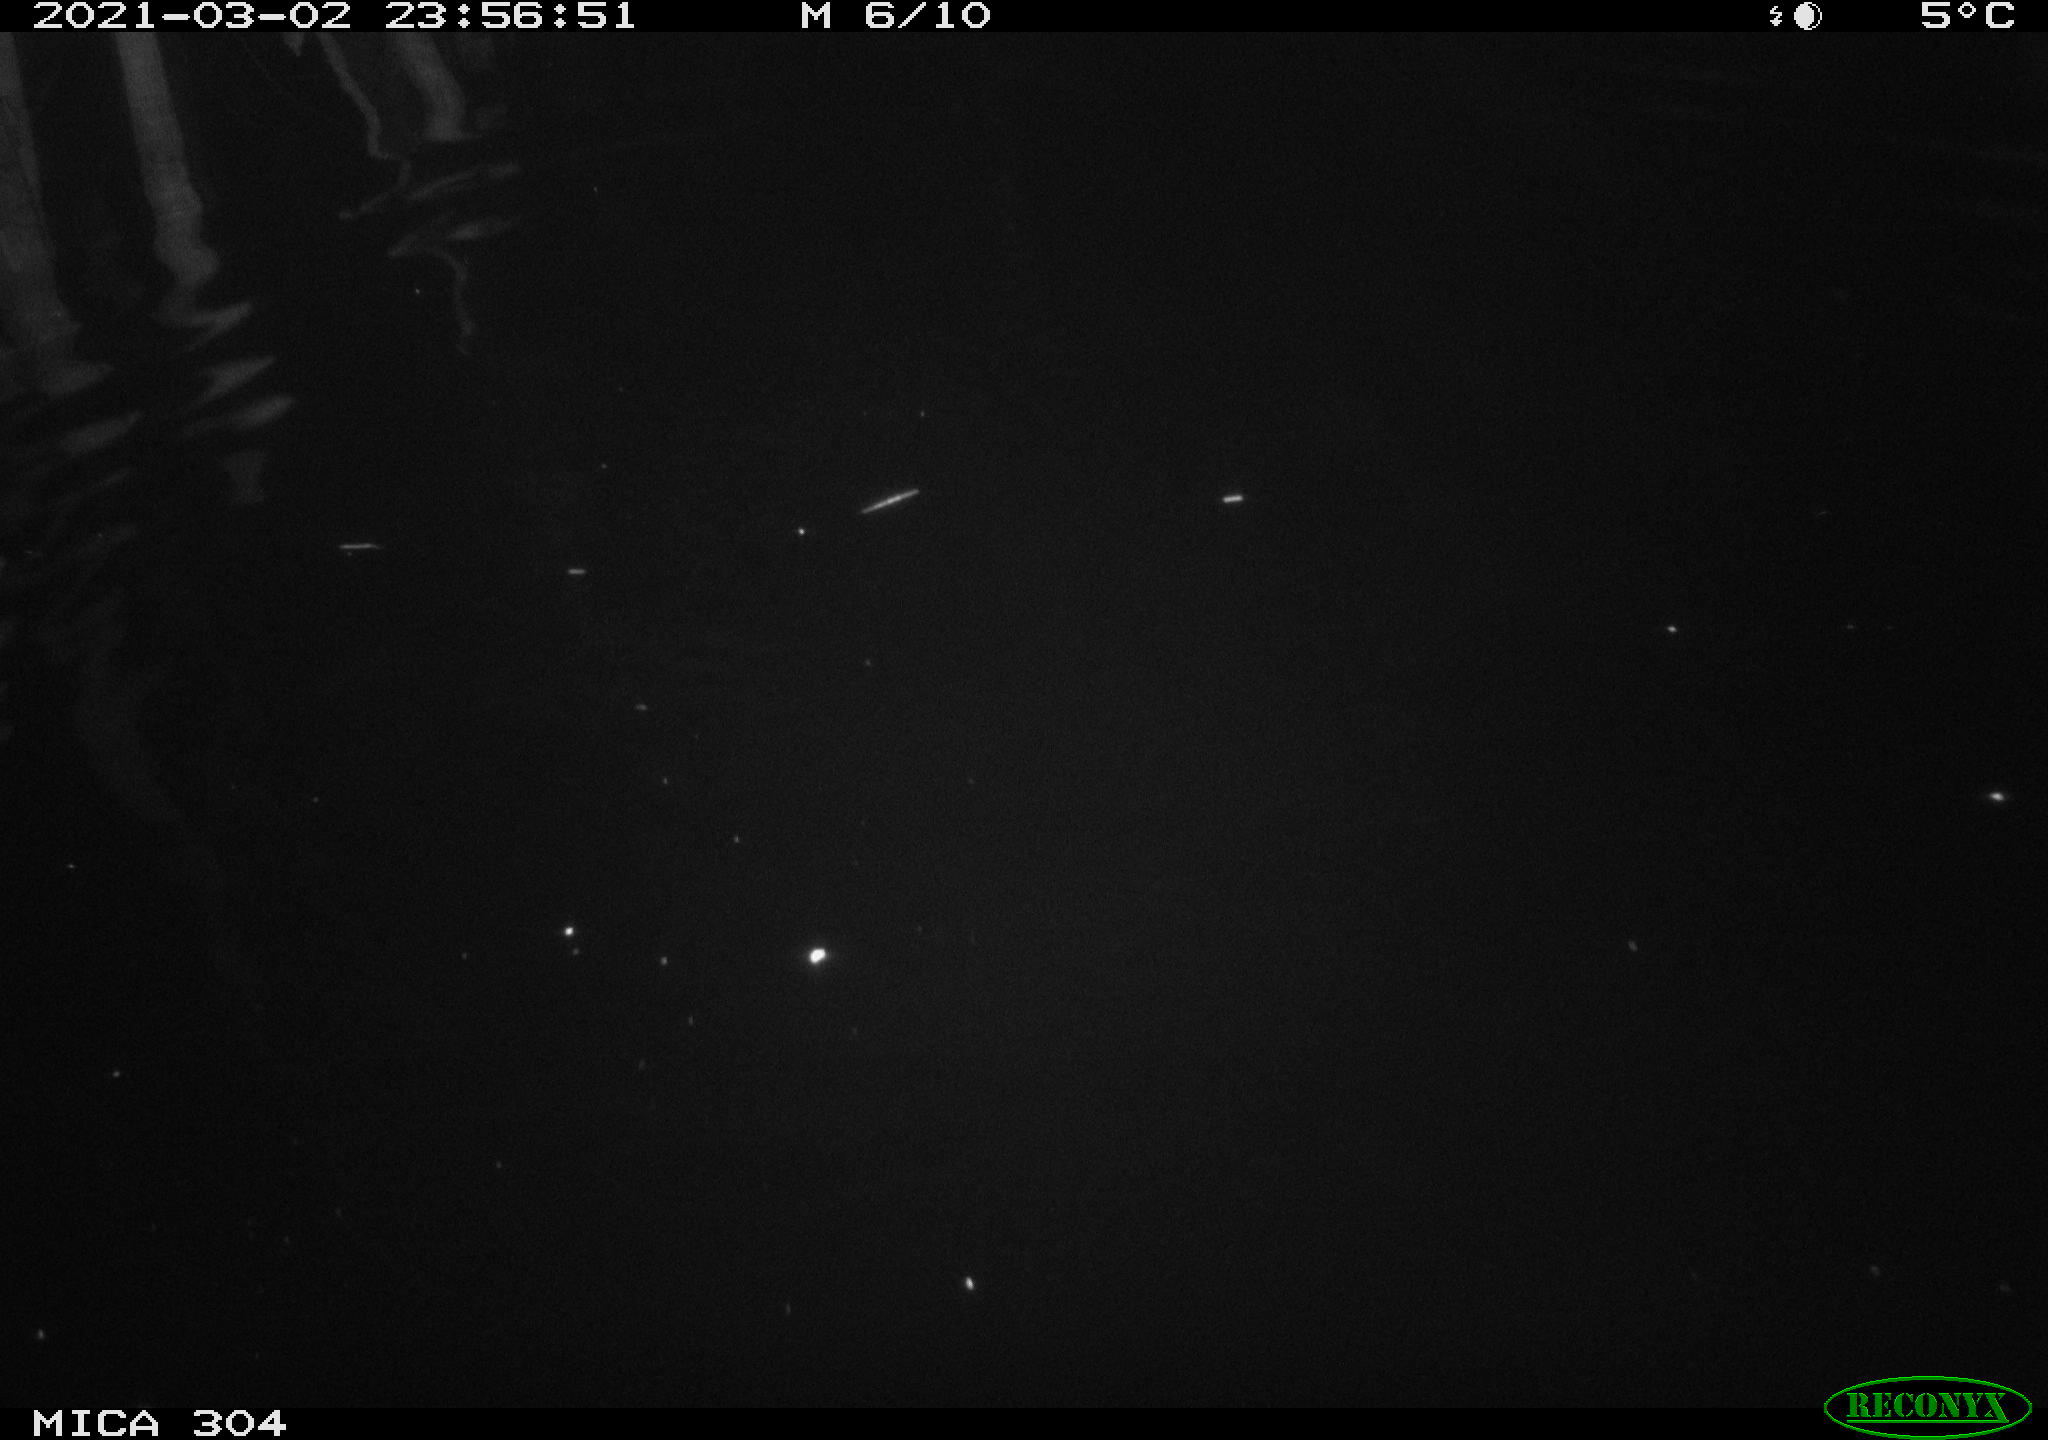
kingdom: Animalia
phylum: Chordata
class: Mammalia
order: Rodentia
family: Cricetidae
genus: Ondatra
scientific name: Ondatra zibethicus
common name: Muskrat
